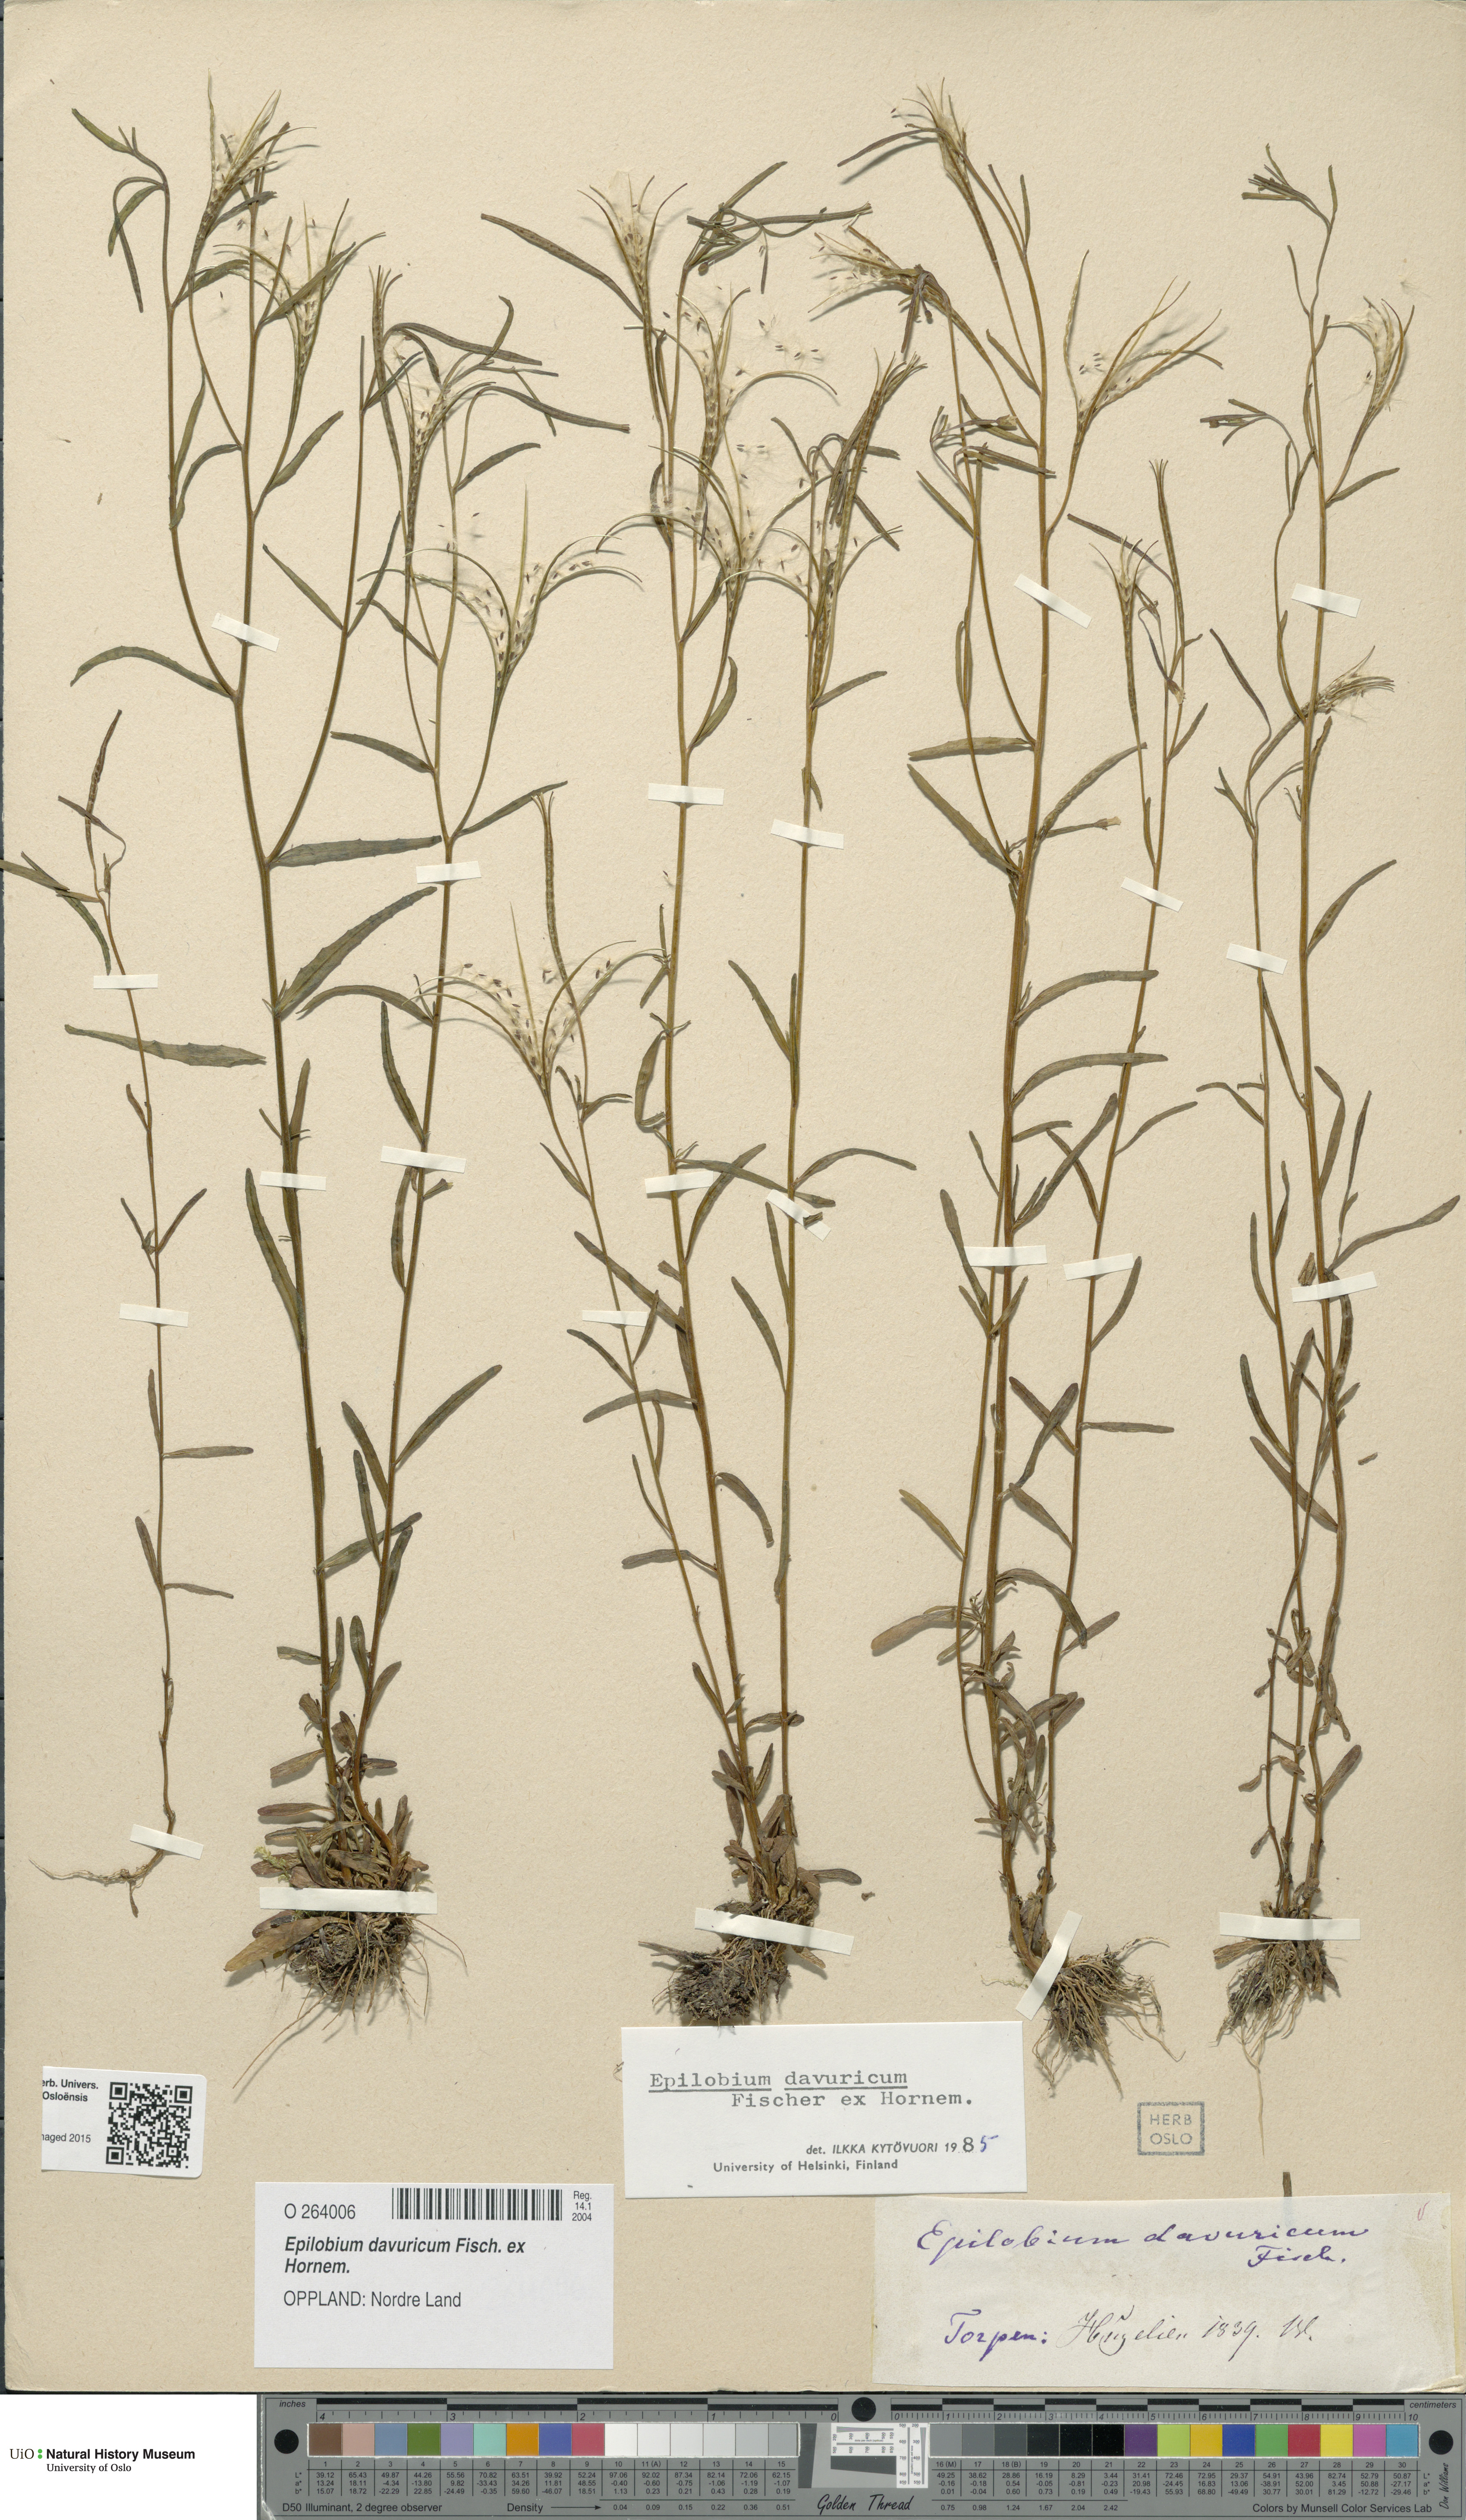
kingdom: Plantae
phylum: Tracheophyta
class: Magnoliopsida
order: Myrtales
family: Onagraceae
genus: Epilobium
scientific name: Epilobium davuricum
